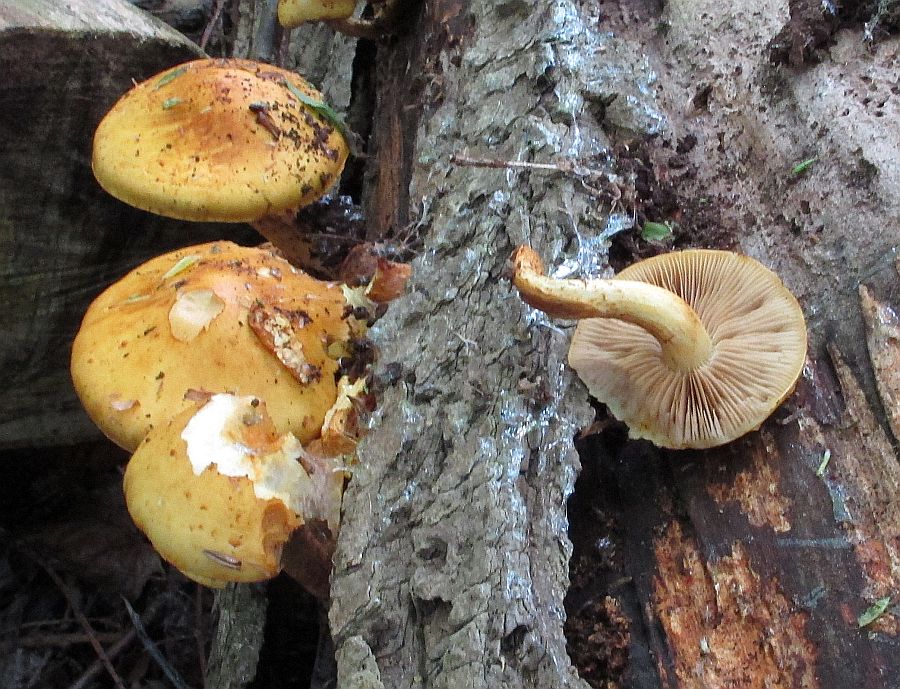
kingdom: Fungi
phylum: Basidiomycota
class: Agaricomycetes
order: Agaricales
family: Strophariaceae
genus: Pholiota
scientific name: Pholiota lucifera
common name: brandgul skælhat
